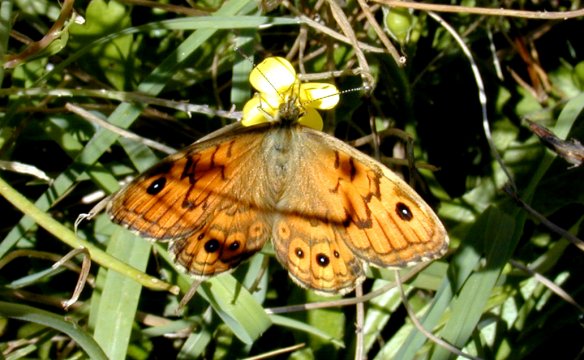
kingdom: Animalia
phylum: Arthropoda
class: Insecta
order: Lepidoptera
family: Nymphalidae
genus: Lasiommata
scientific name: Lasiommata
